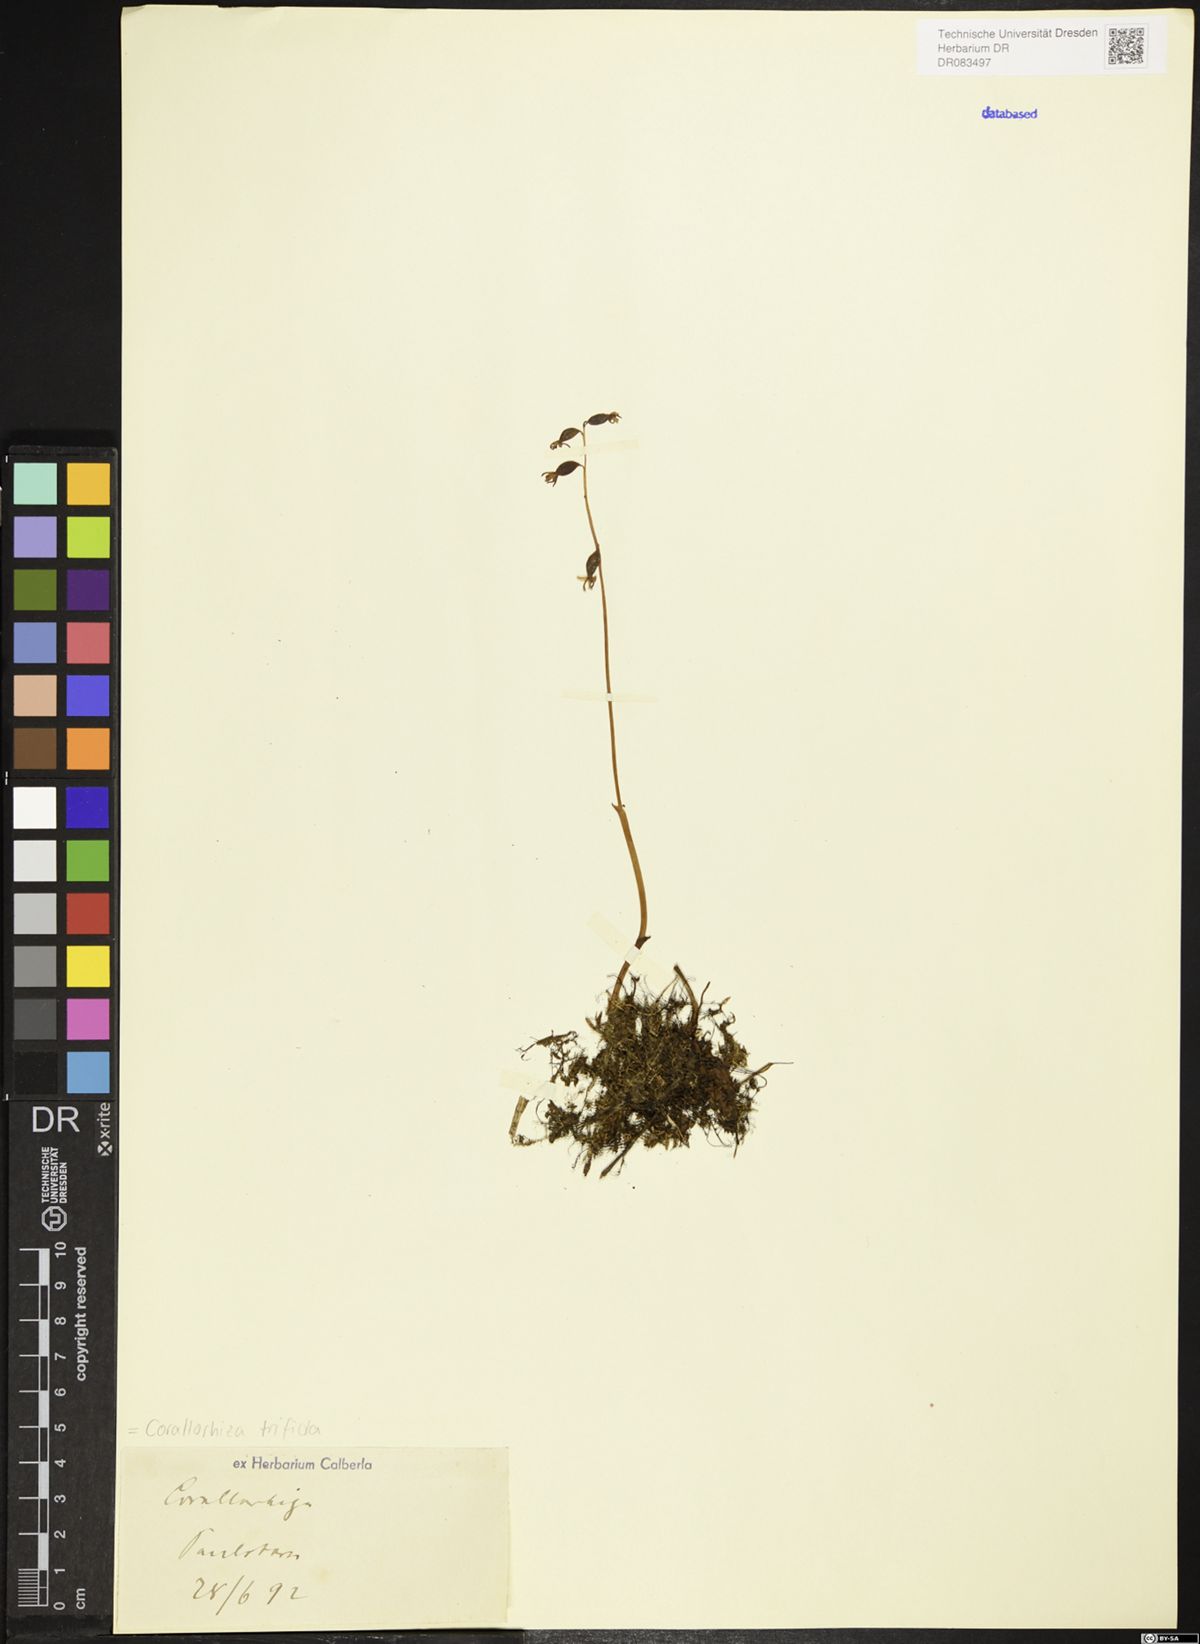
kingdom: Plantae
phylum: Tracheophyta
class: Liliopsida
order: Asparagales
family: Orchidaceae
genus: Corallorhiza
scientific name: Corallorhiza trifida
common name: Yellow coralroot
